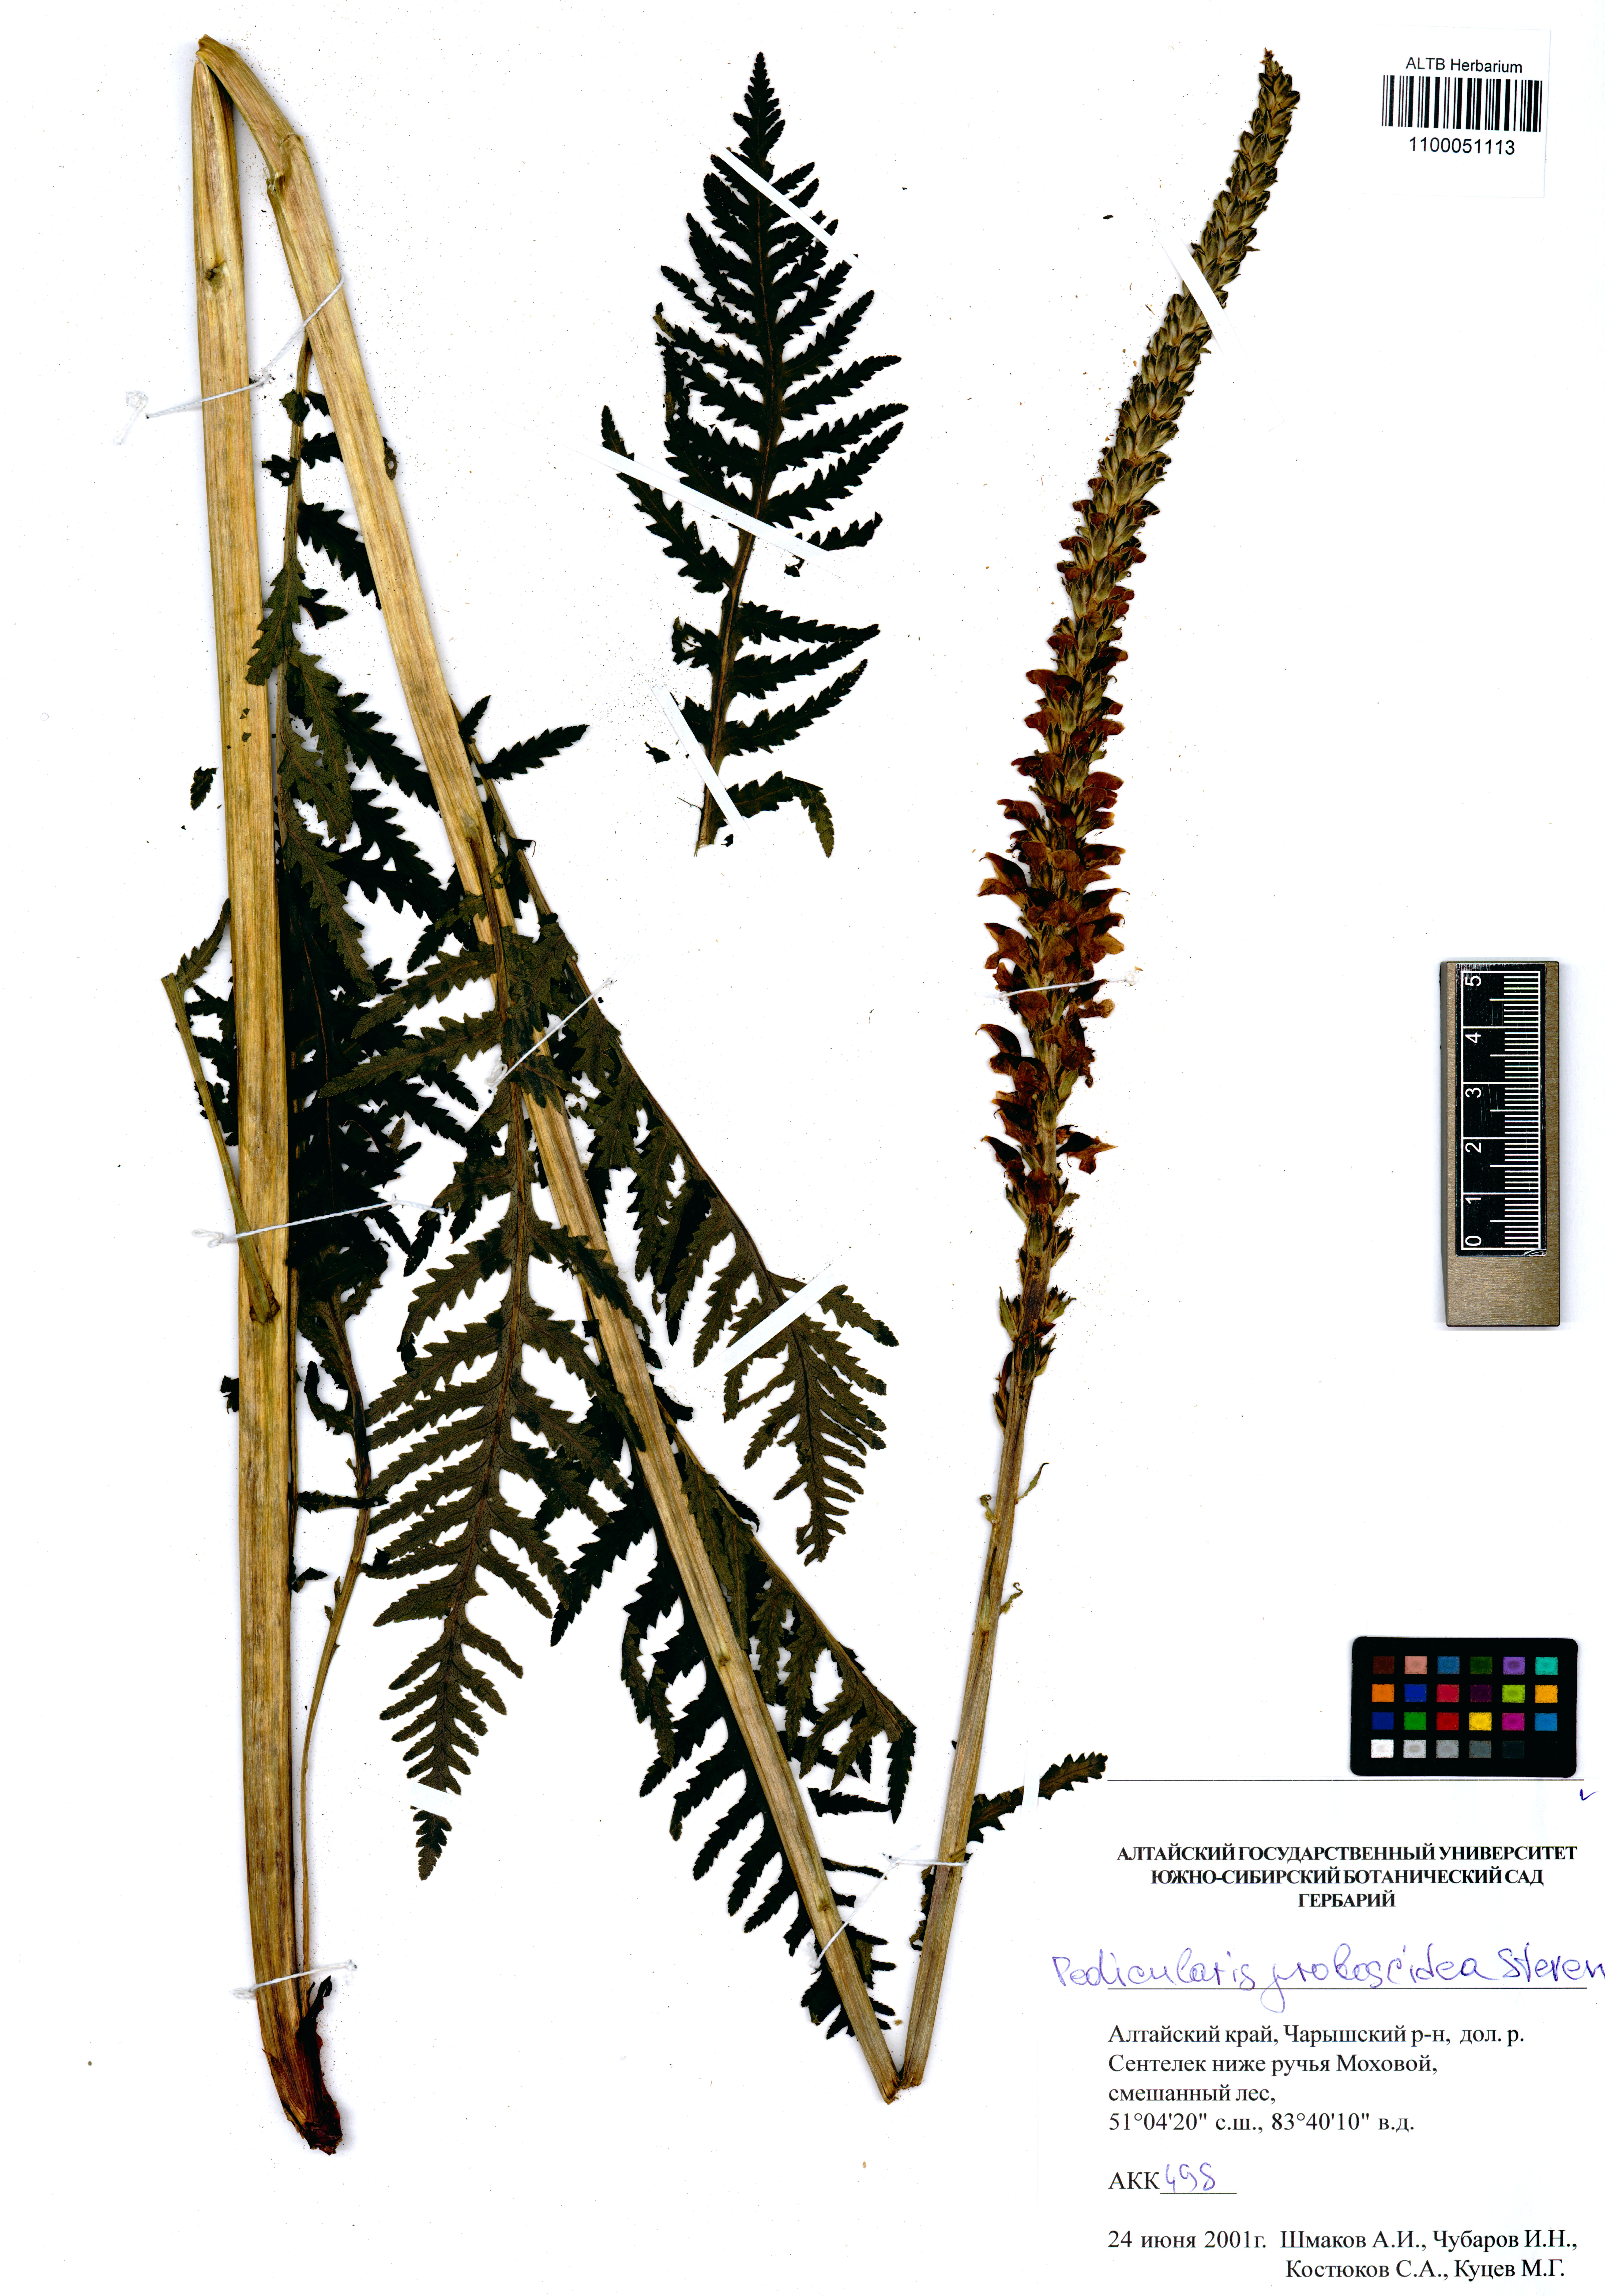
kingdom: Plantae
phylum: Tracheophyta
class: Magnoliopsida
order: Lamiales
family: Orobanchaceae
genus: Pedicularis
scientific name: Pedicularis proboscidea
